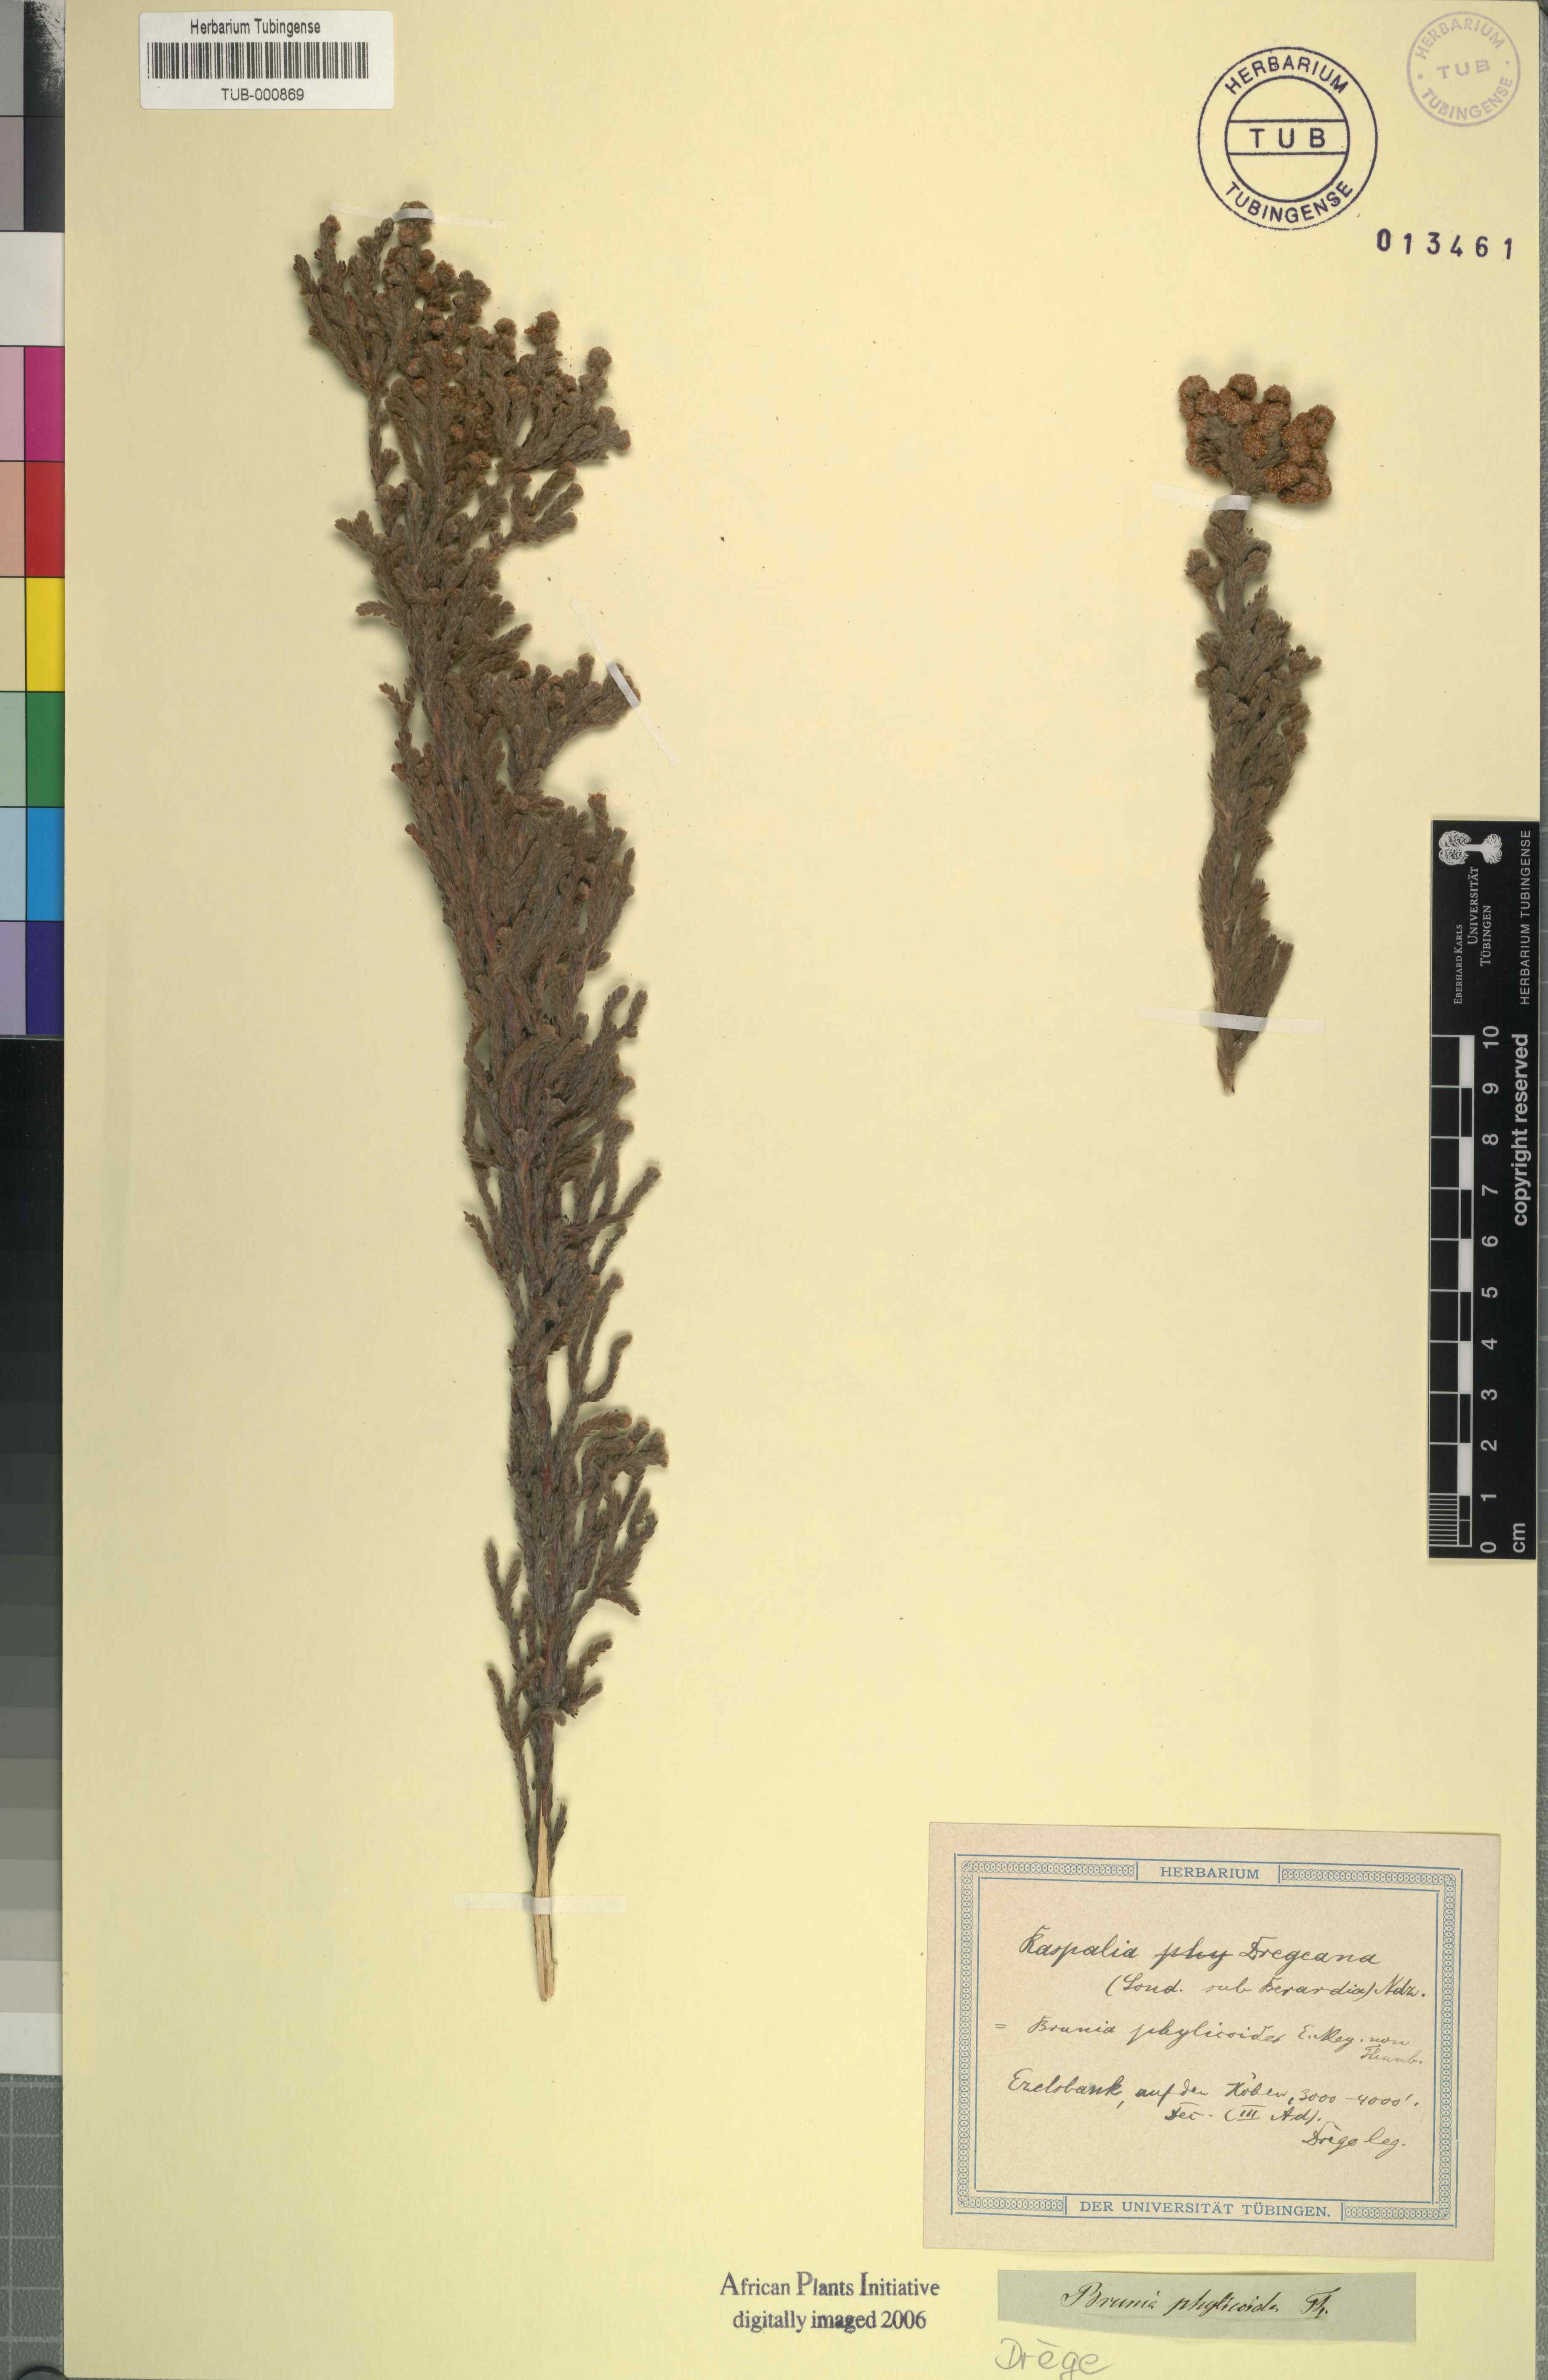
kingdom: Plantae
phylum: Tracheophyta
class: Magnoliopsida
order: Bruniales
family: Bruniaceae
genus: Brunia
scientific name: Brunia phylicoides
